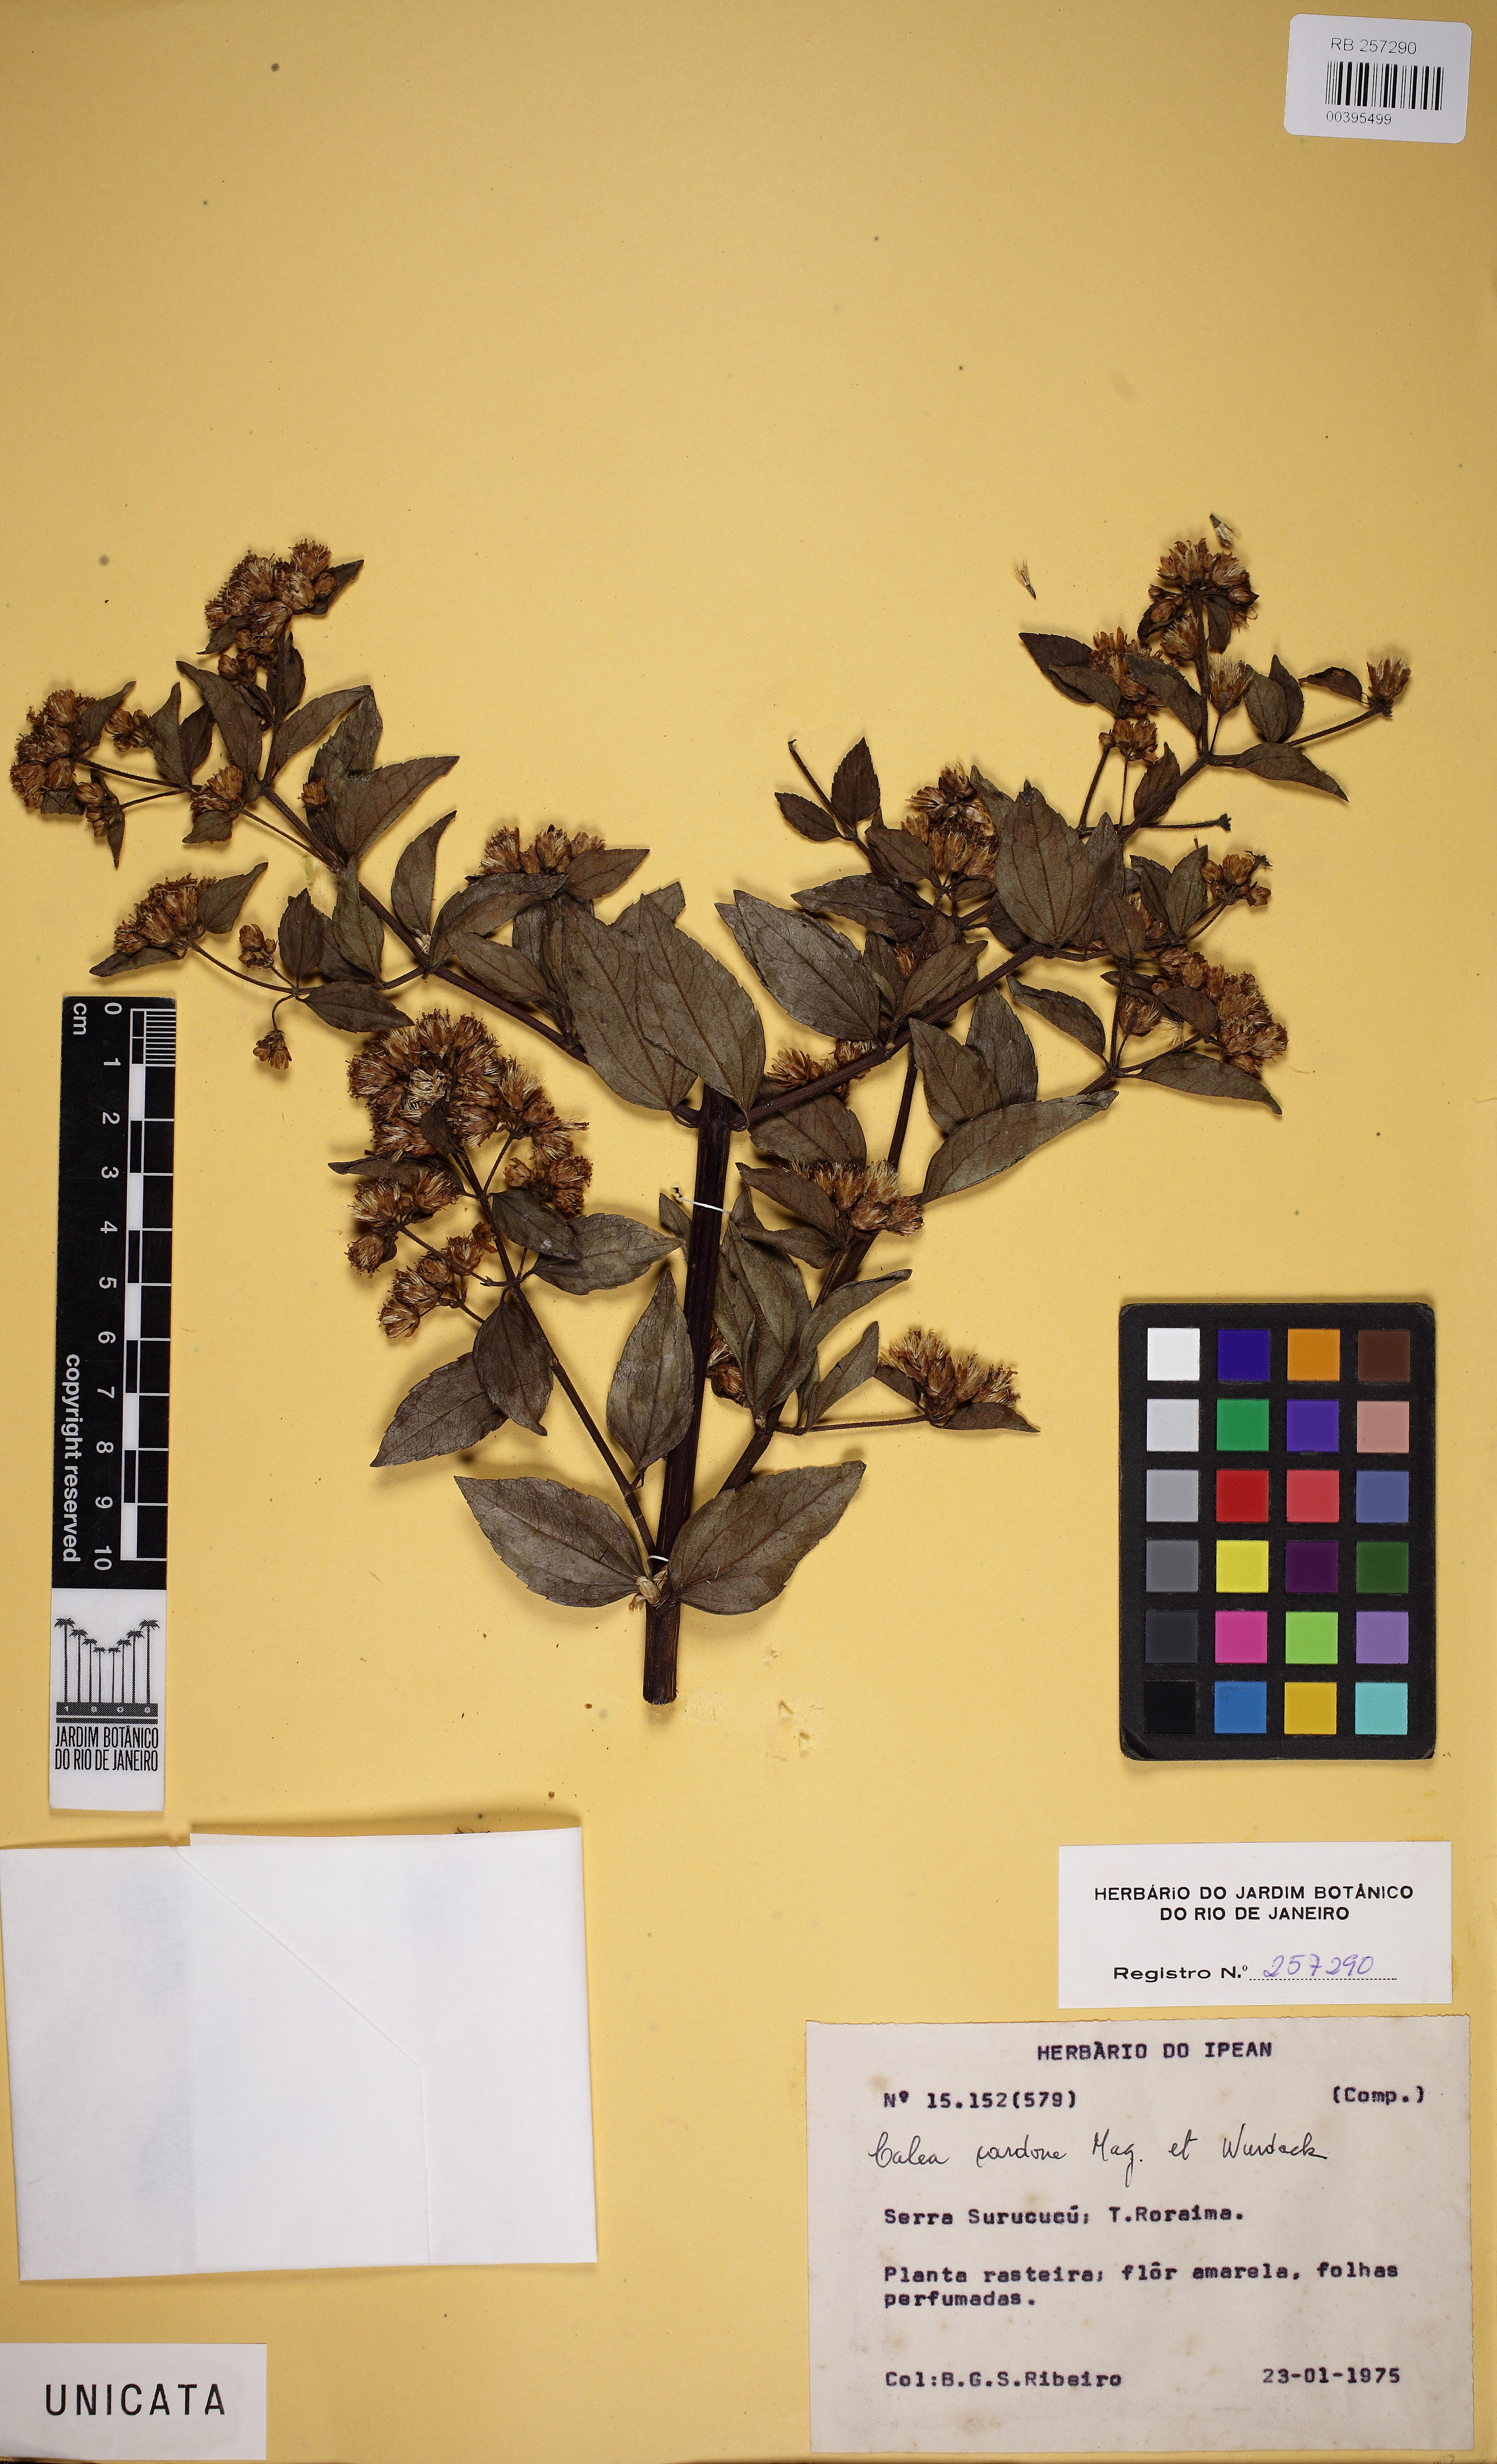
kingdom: Plantae
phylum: Tracheophyta
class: Magnoliopsida
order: Asterales
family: Asteraceae
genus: Calea
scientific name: Calea lucidivenia
